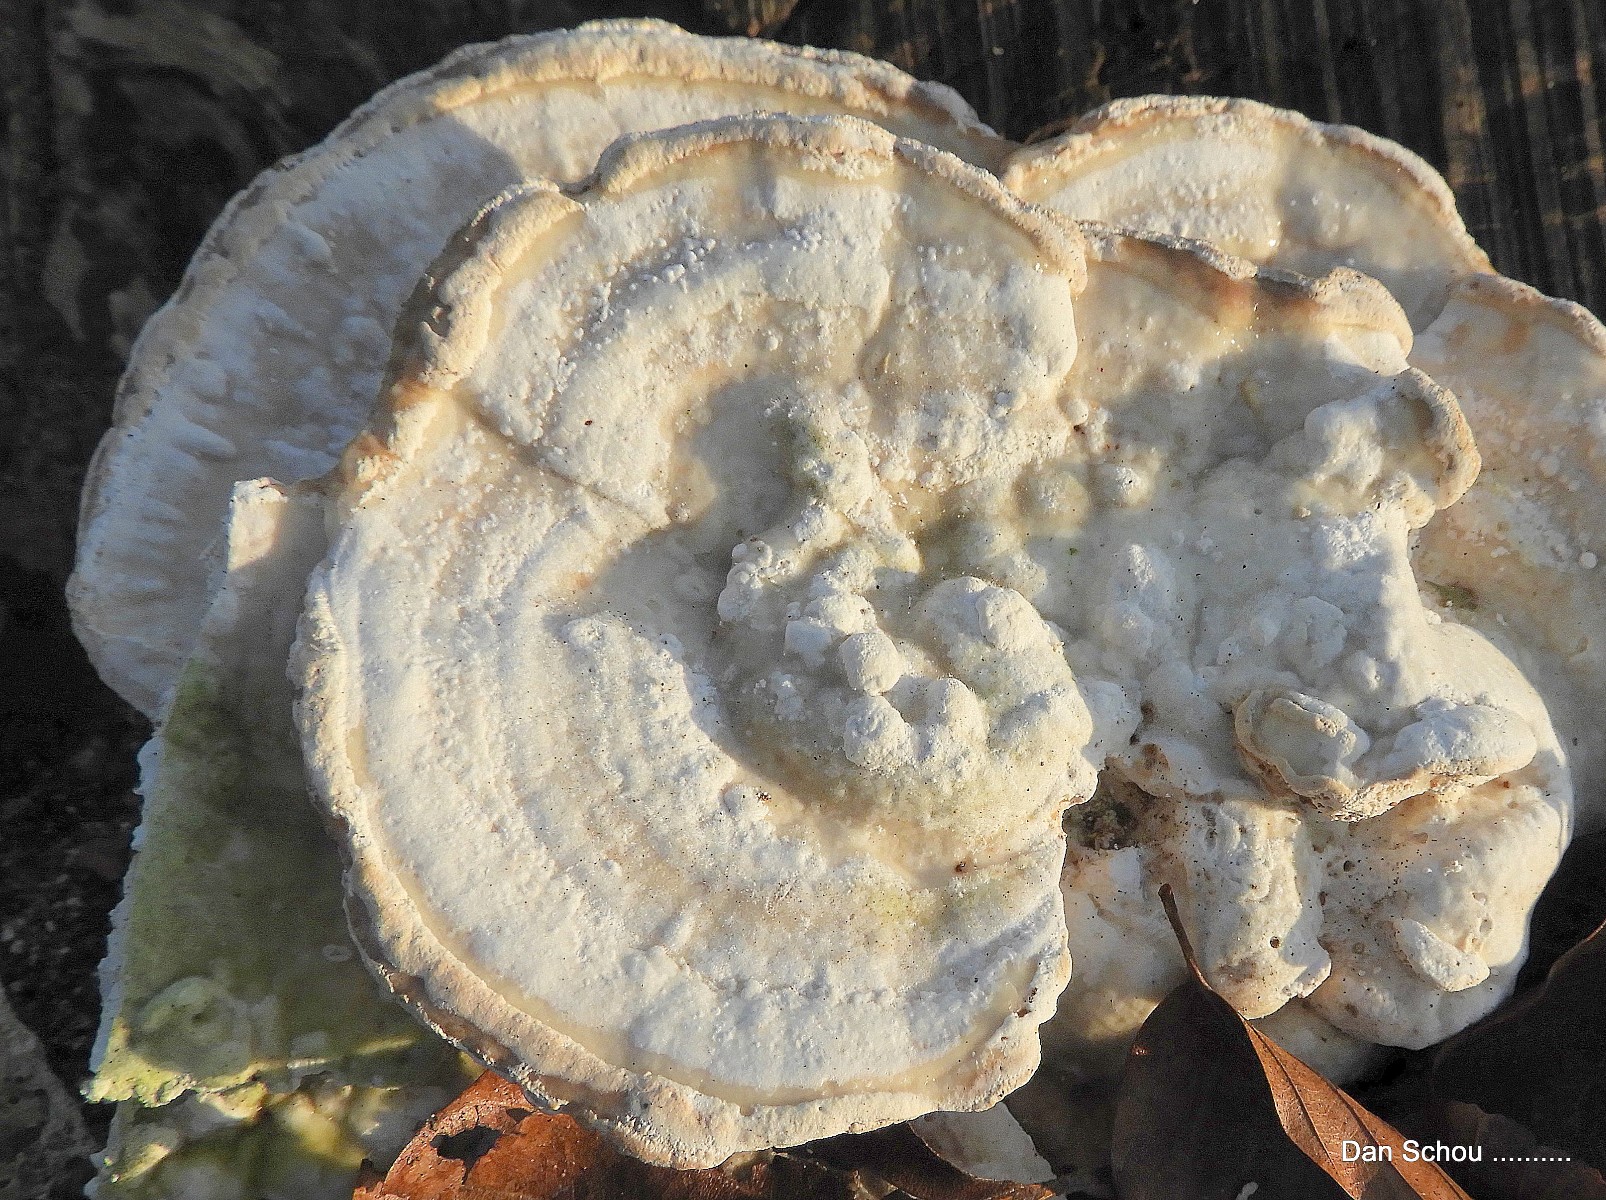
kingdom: Fungi
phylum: Basidiomycota
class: Agaricomycetes
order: Polyporales
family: Polyporaceae
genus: Trametes
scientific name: Trametes gibbosa
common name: puklet læderporesvamp
